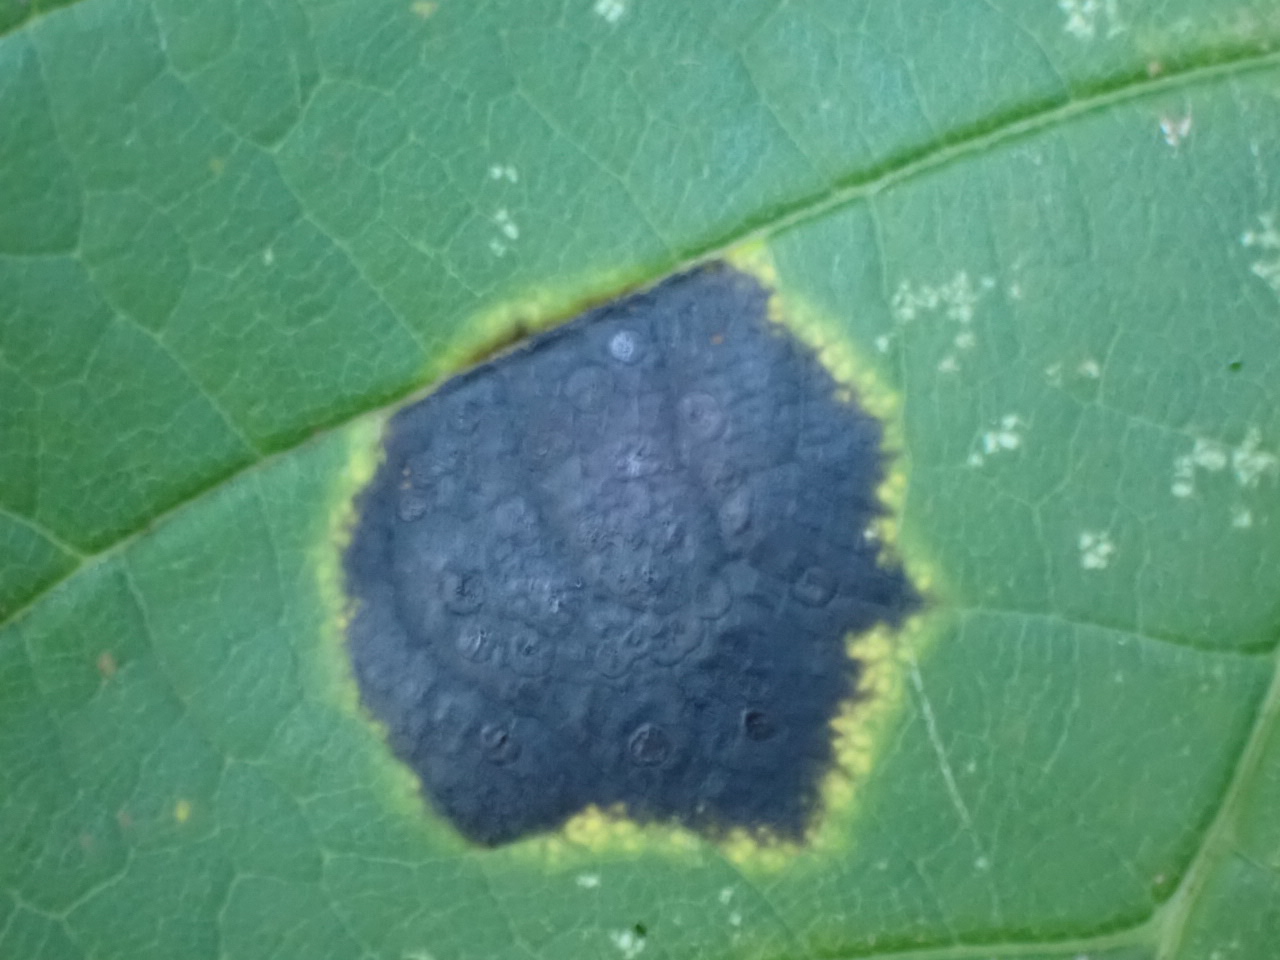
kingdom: Fungi
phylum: Ascomycota
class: Leotiomycetes
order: Rhytismatales
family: Rhytismataceae
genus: Rhytisma
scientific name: Rhytisma acerinum
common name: ahorn-rynkeplet
